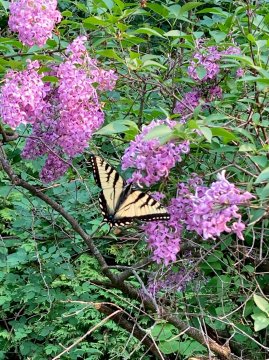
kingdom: Animalia
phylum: Arthropoda
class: Insecta
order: Lepidoptera
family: Papilionidae
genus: Pterourus
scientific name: Pterourus canadensis
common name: Canadian Tiger Swallowtail
